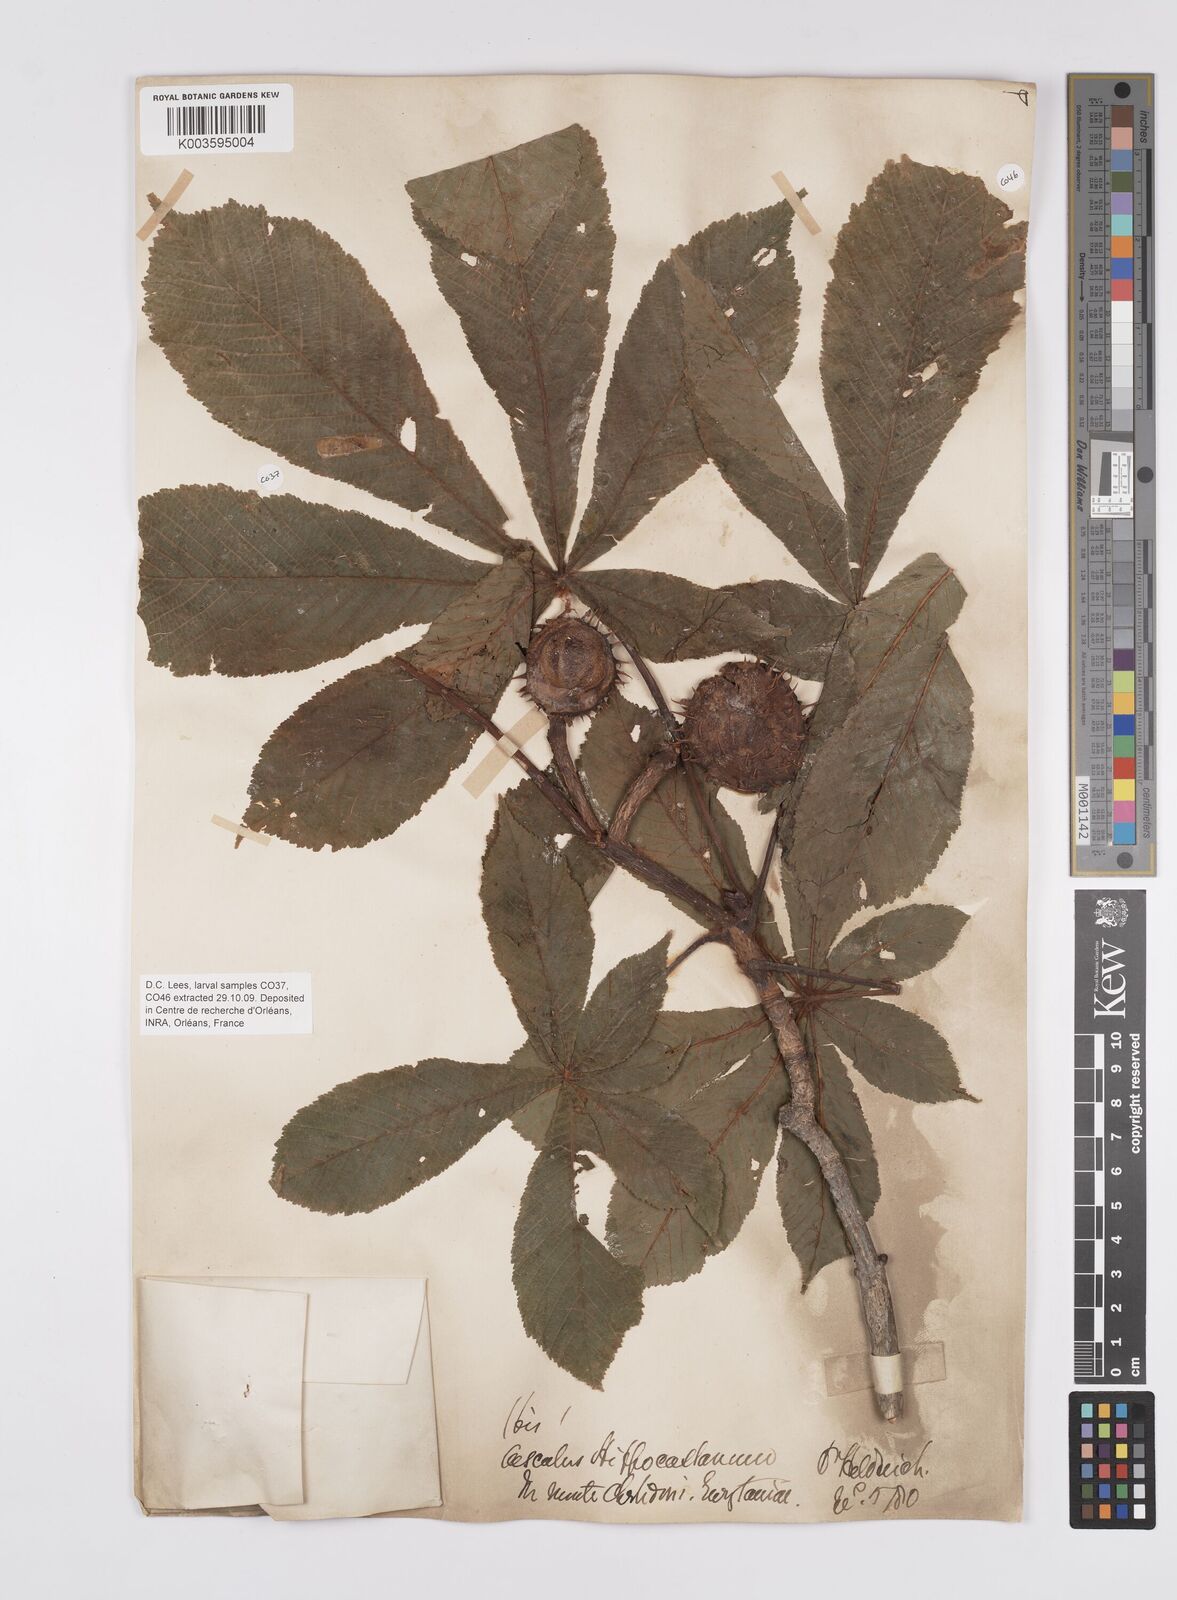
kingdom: Plantae
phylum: Tracheophyta
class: Magnoliopsida
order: Sapindales
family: Sapindaceae
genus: Aesculus
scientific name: Aesculus hippocastanum
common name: Horse-chestnut
